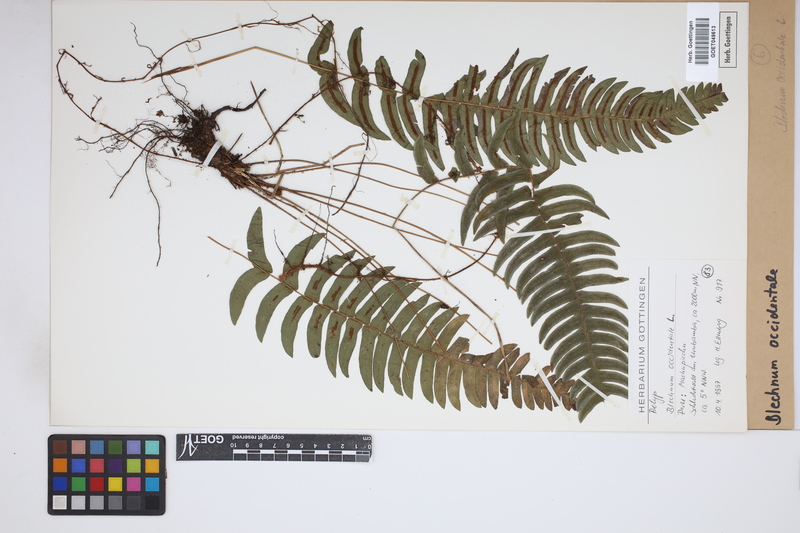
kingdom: Plantae
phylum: Tracheophyta
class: Polypodiopsida
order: Polypodiales
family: Blechnaceae
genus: Blechnum
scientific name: Blechnum occidentale
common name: Hammock fern
